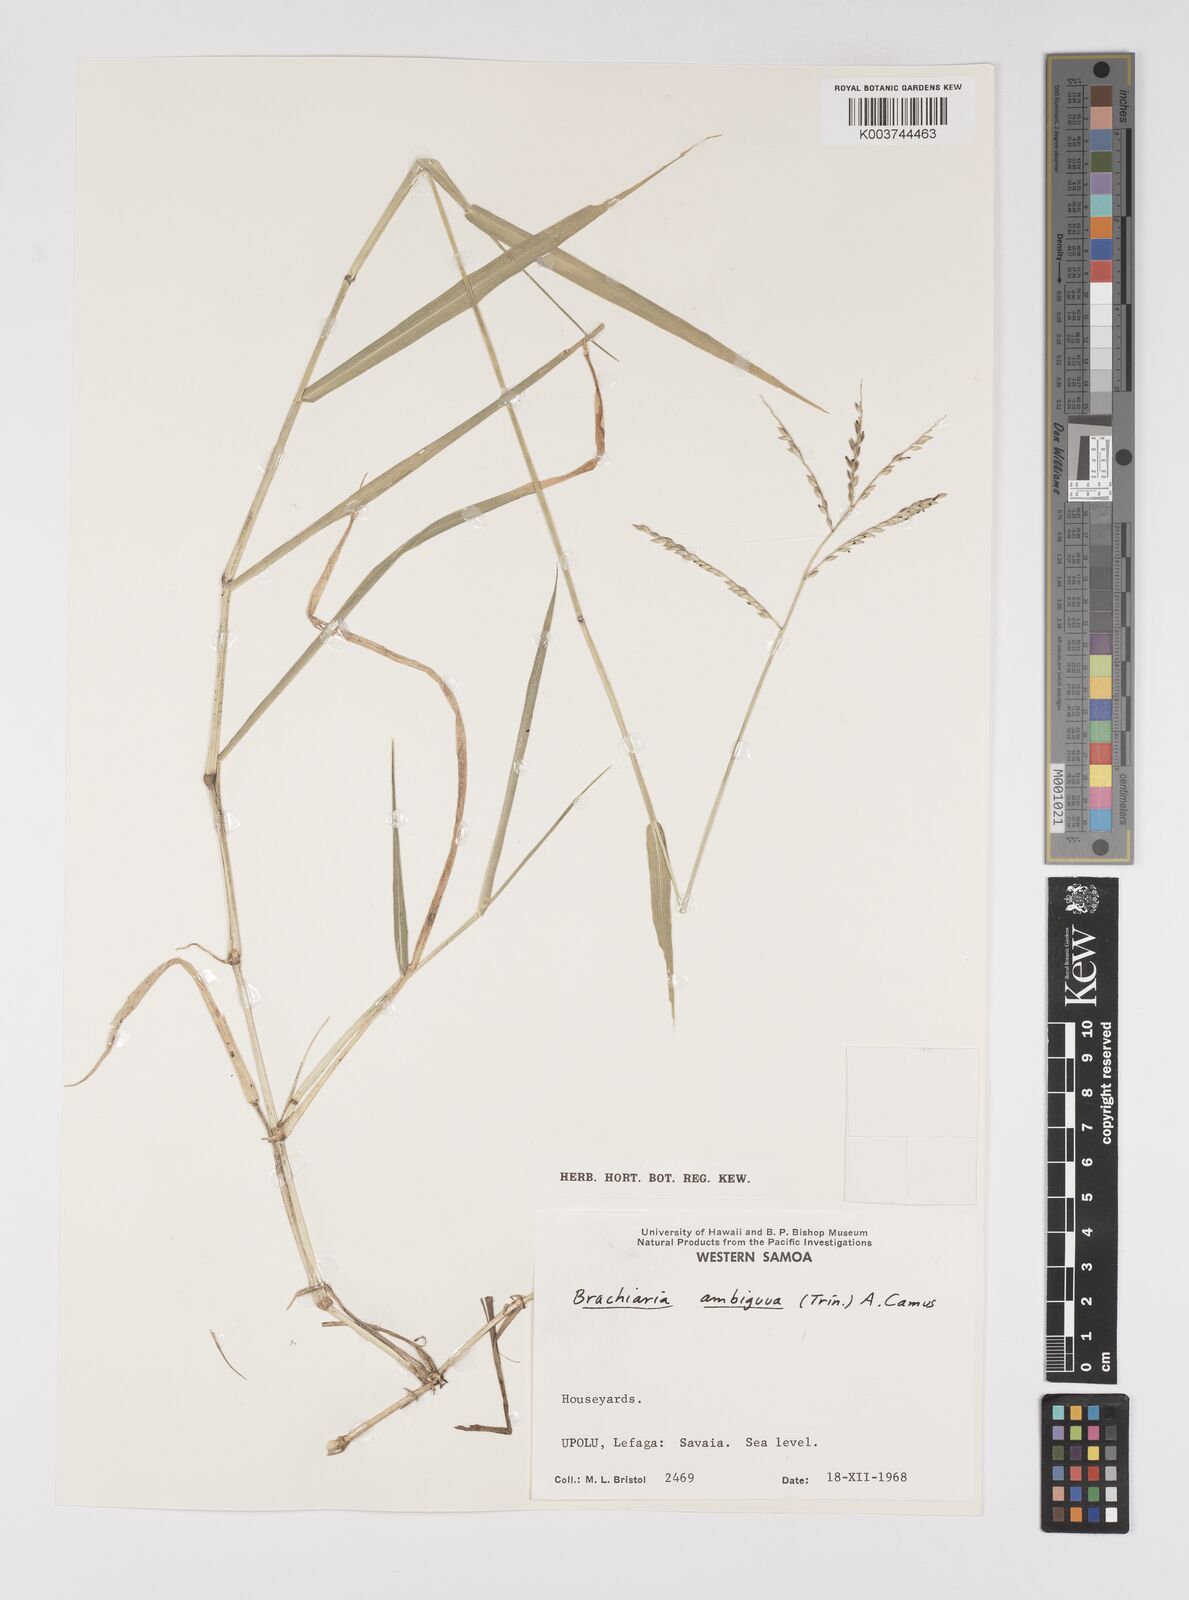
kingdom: Plantae
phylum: Tracheophyta
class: Liliopsida
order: Poales
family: Poaceae
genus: Urochloa
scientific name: Urochloa glumaris
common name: Thurston grass
